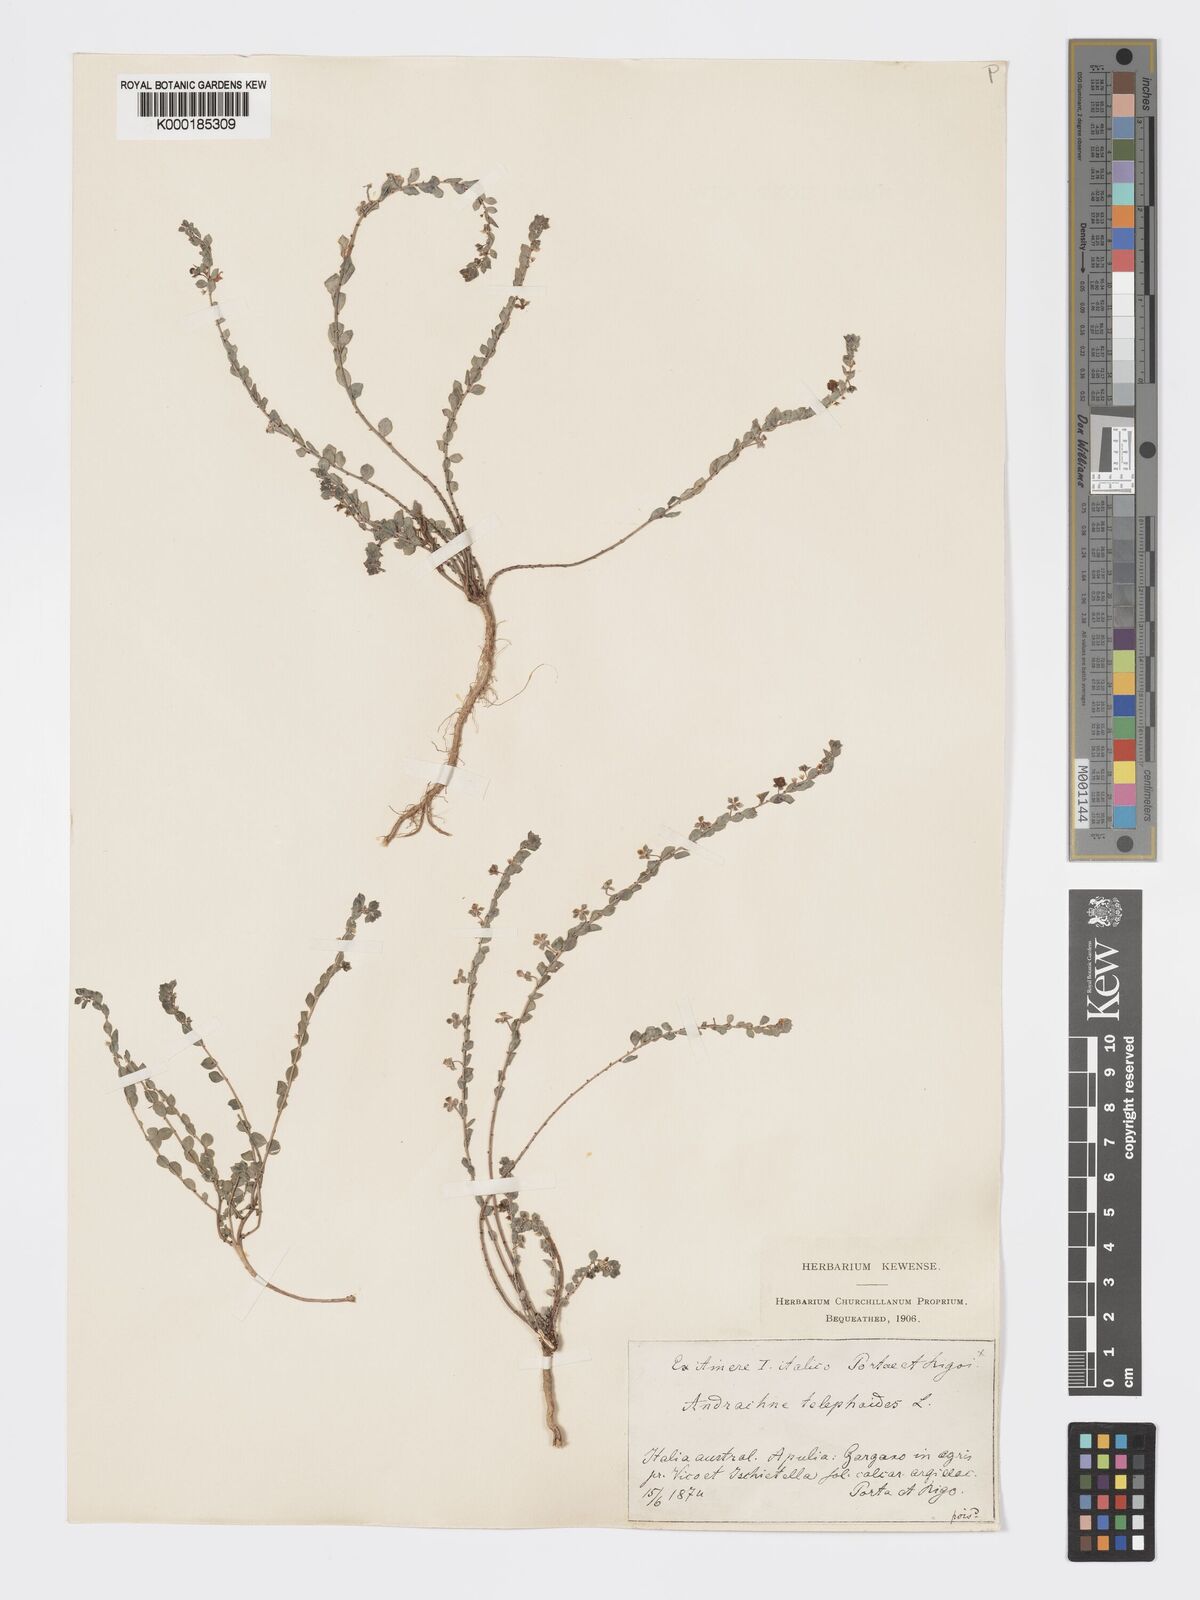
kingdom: Plantae
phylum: Tracheophyta
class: Magnoliopsida
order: Malpighiales
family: Phyllanthaceae
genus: Andrachne
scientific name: Andrachne telephioides
